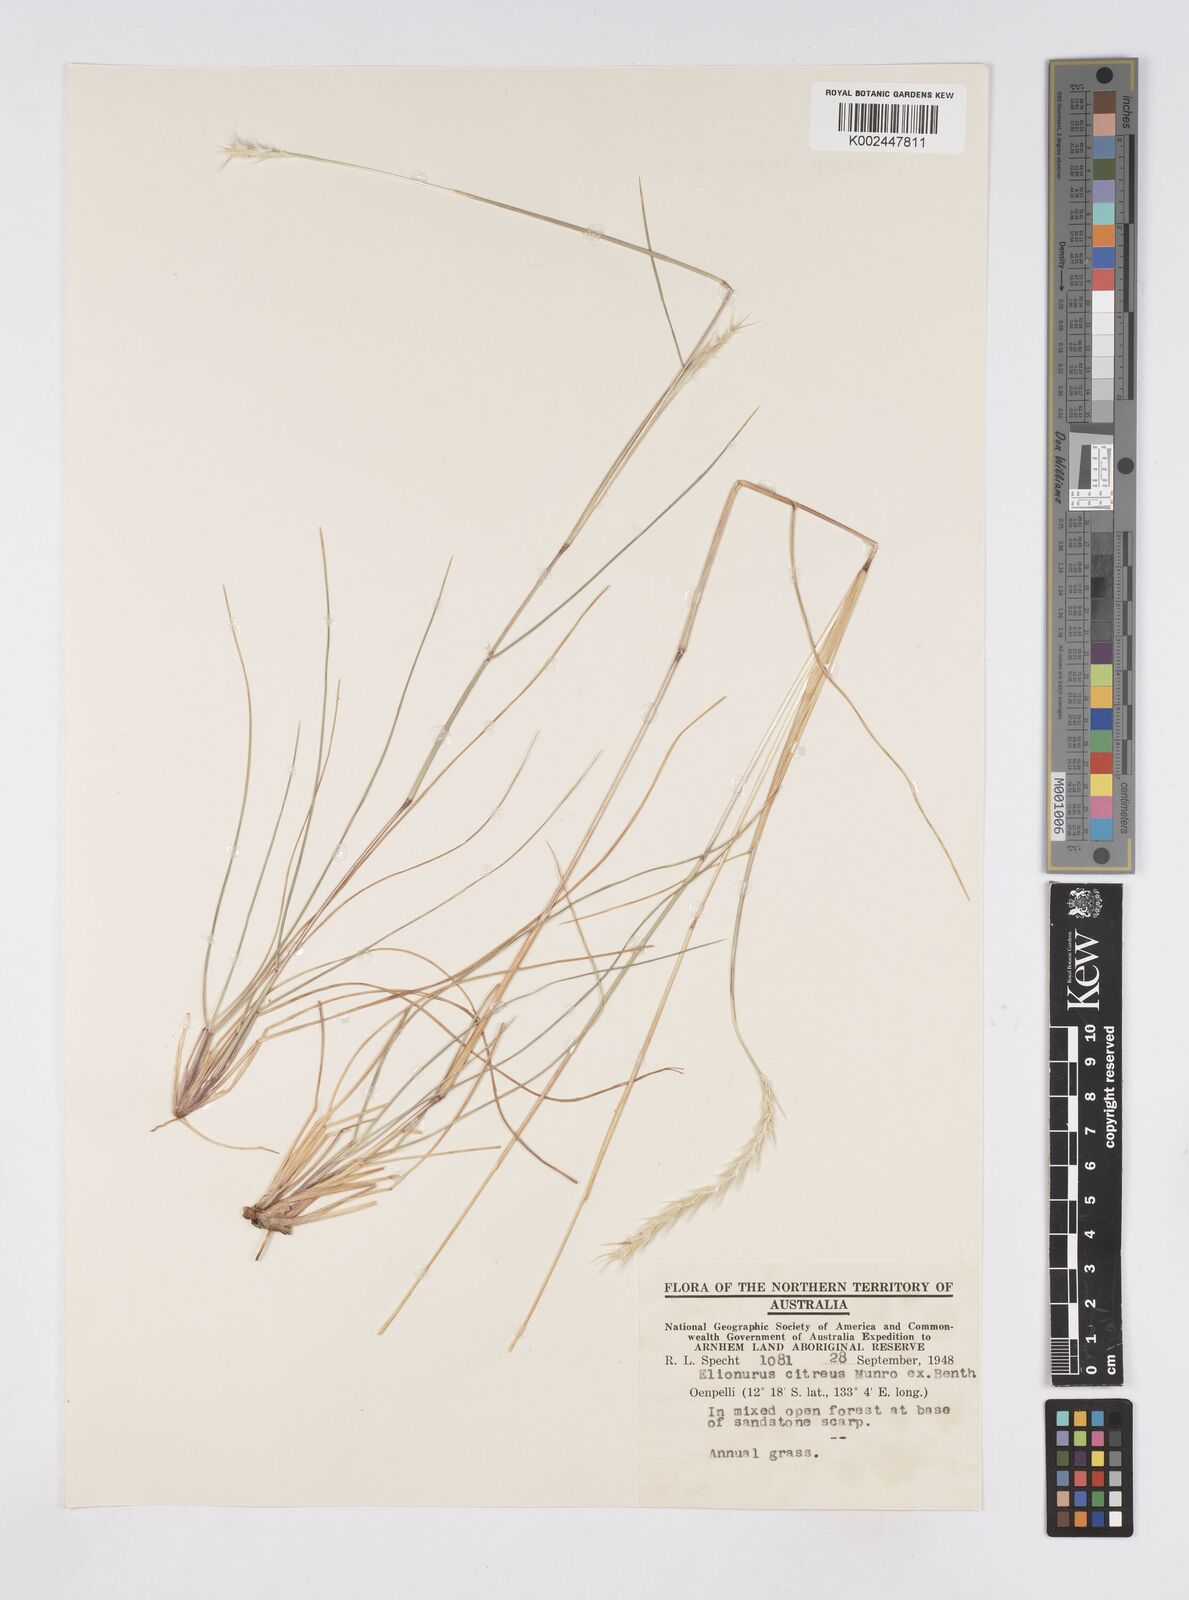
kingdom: Plantae
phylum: Tracheophyta
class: Liliopsida
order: Poales
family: Poaceae
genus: Elionurus
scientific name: Elionurus citreus
